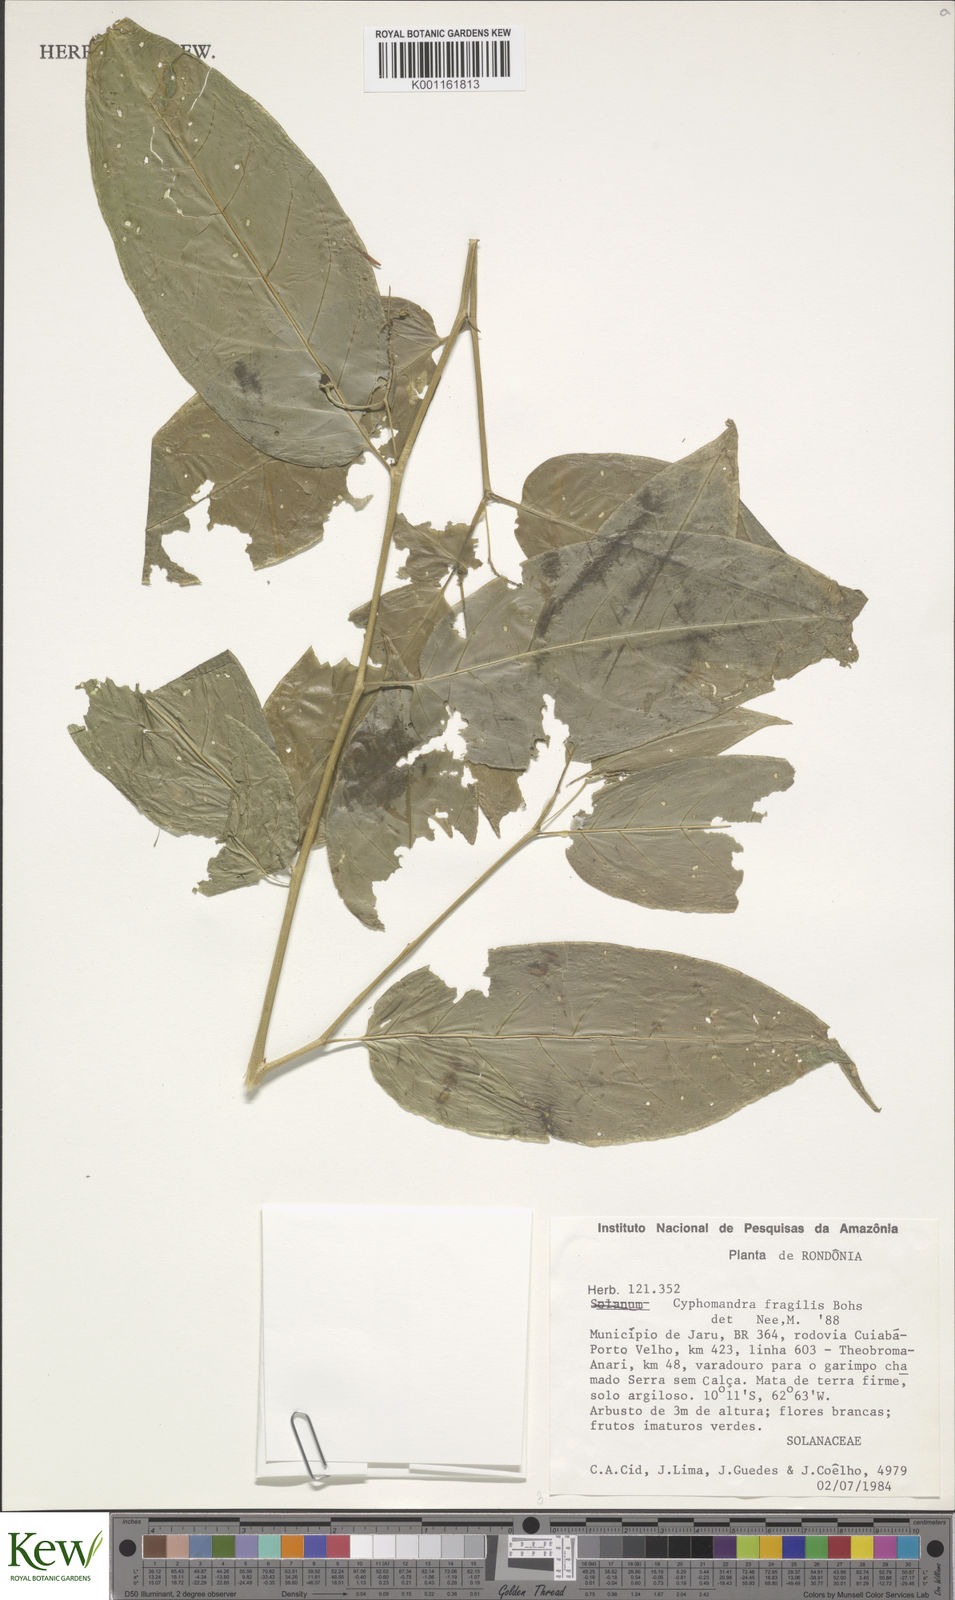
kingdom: Plantae
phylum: Tracheophyta
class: Magnoliopsida
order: Solanales
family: Solanaceae
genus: Solanum
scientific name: Solanum oxyphyllum
